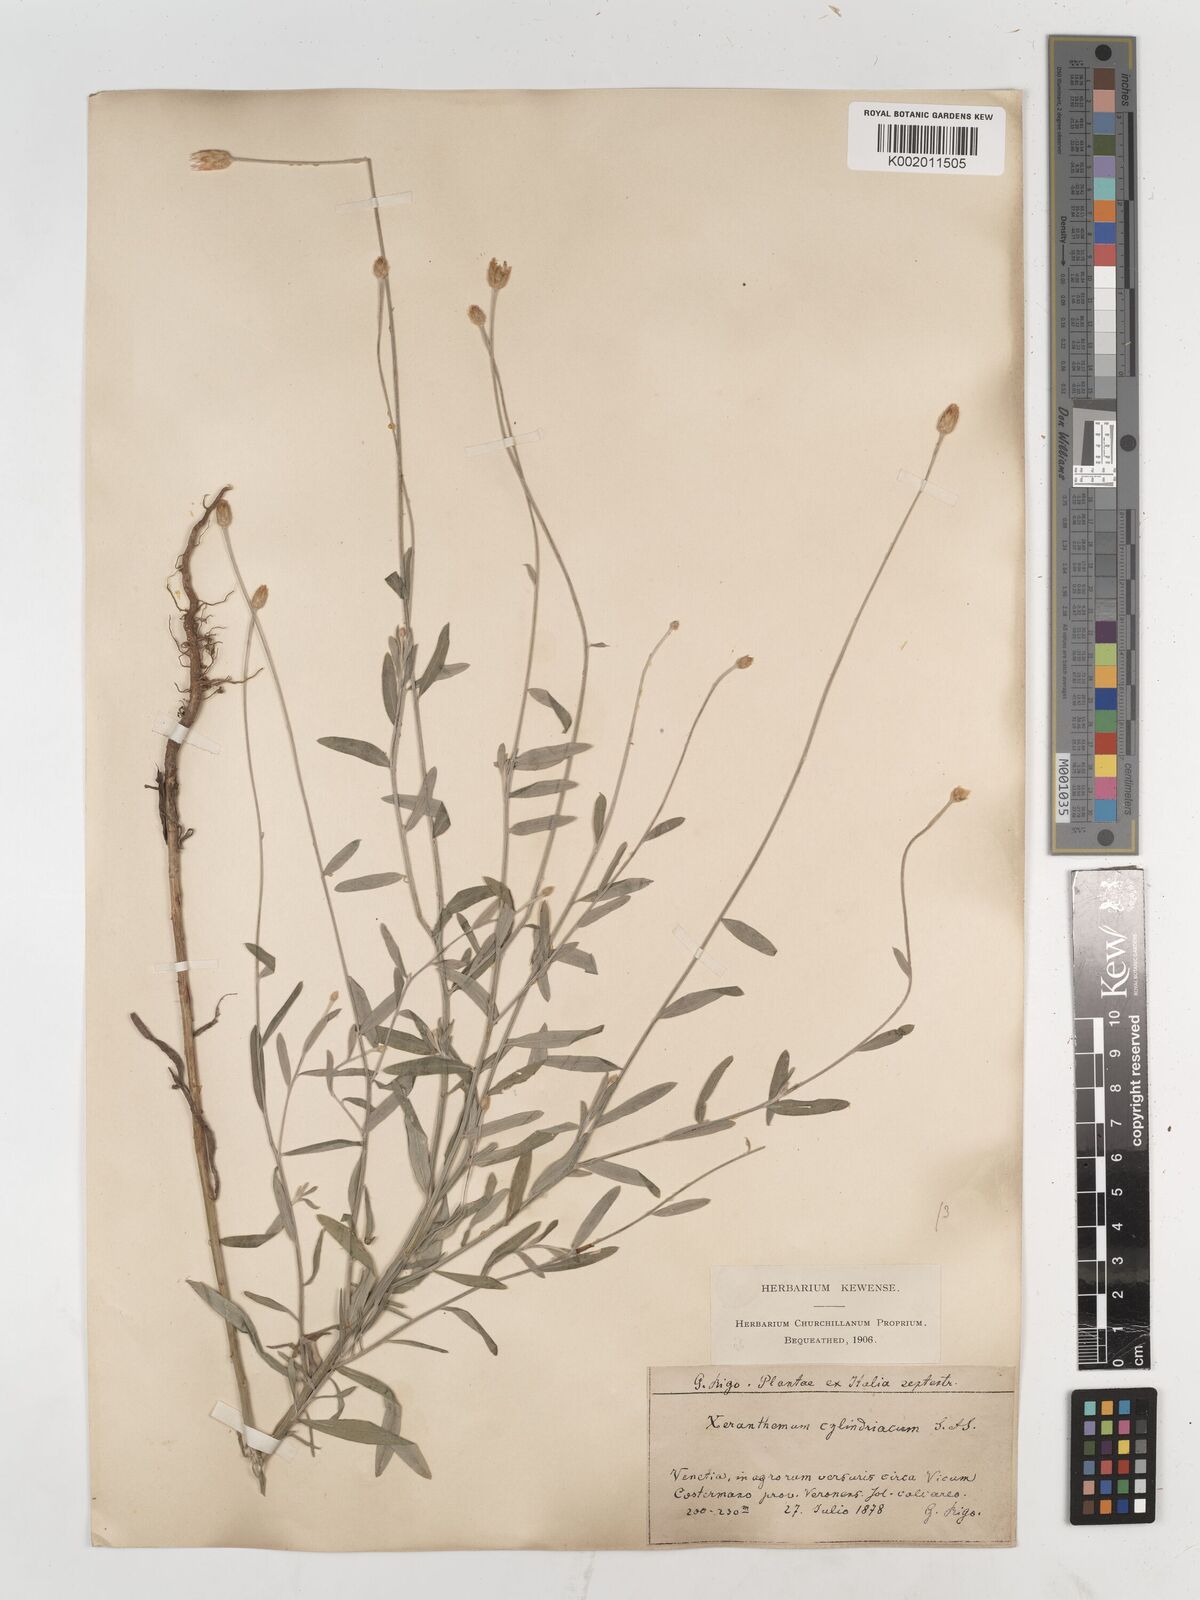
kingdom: Plantae
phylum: Tracheophyta
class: Magnoliopsida
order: Asterales
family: Asteraceae
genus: Xeranthemum
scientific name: Xeranthemum cylindraceum
